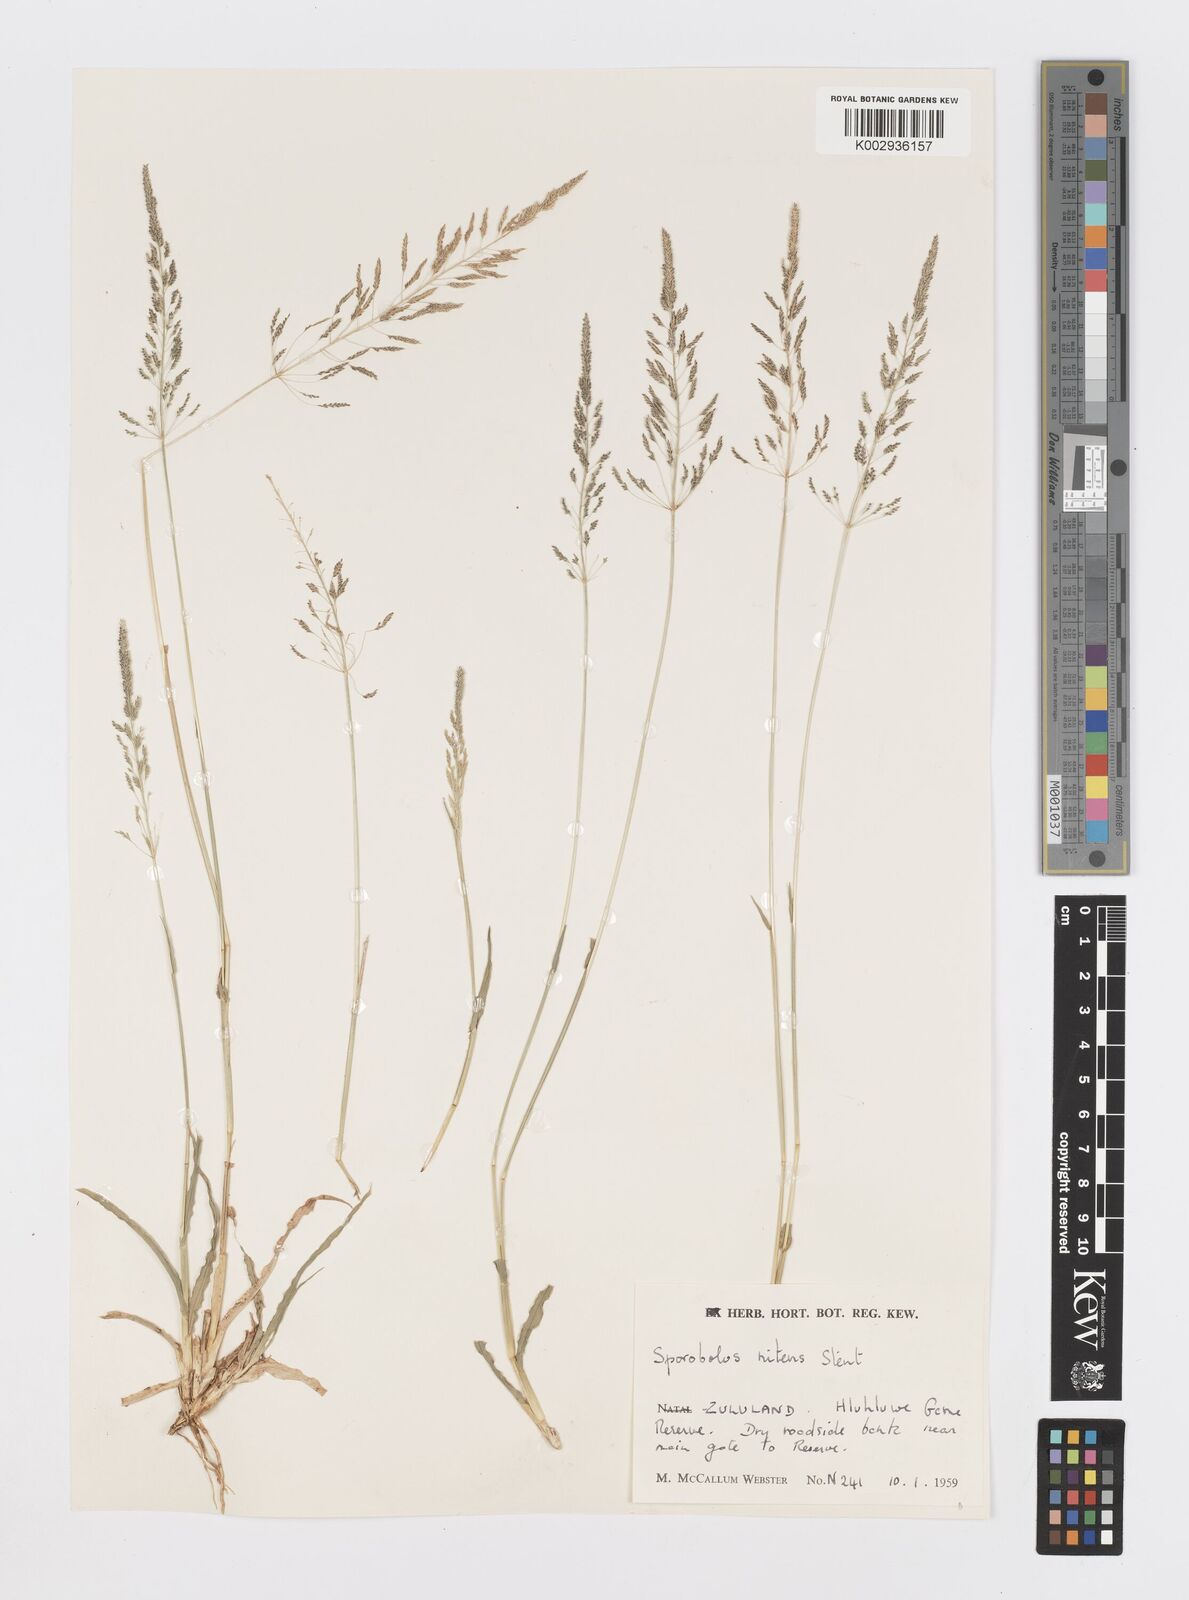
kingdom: Plantae
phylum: Tracheophyta
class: Liliopsida
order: Poales
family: Poaceae
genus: Sporobolus
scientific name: Sporobolus nitens
